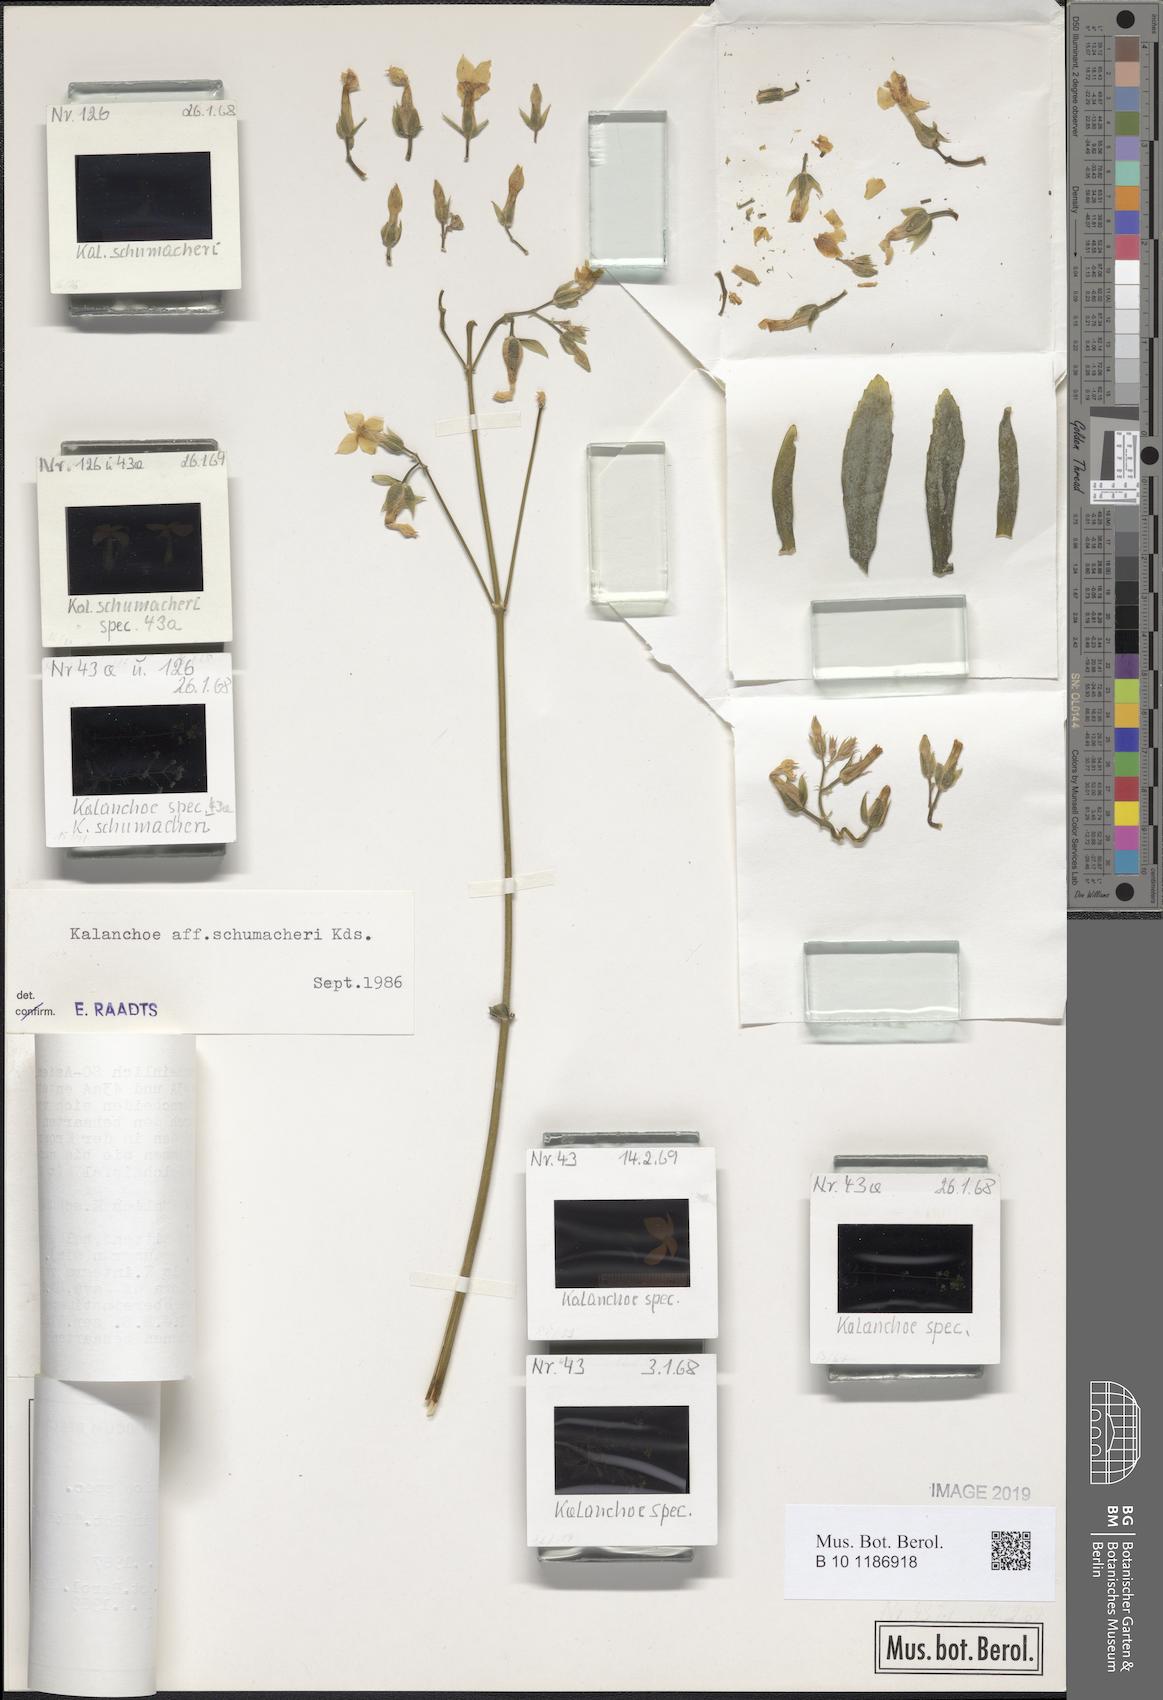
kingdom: Plantae
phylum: Tracheophyta
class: Magnoliopsida
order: Saxifragales
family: Crassulaceae
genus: Kalanchoe
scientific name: Kalanchoe integra
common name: Neverdie
